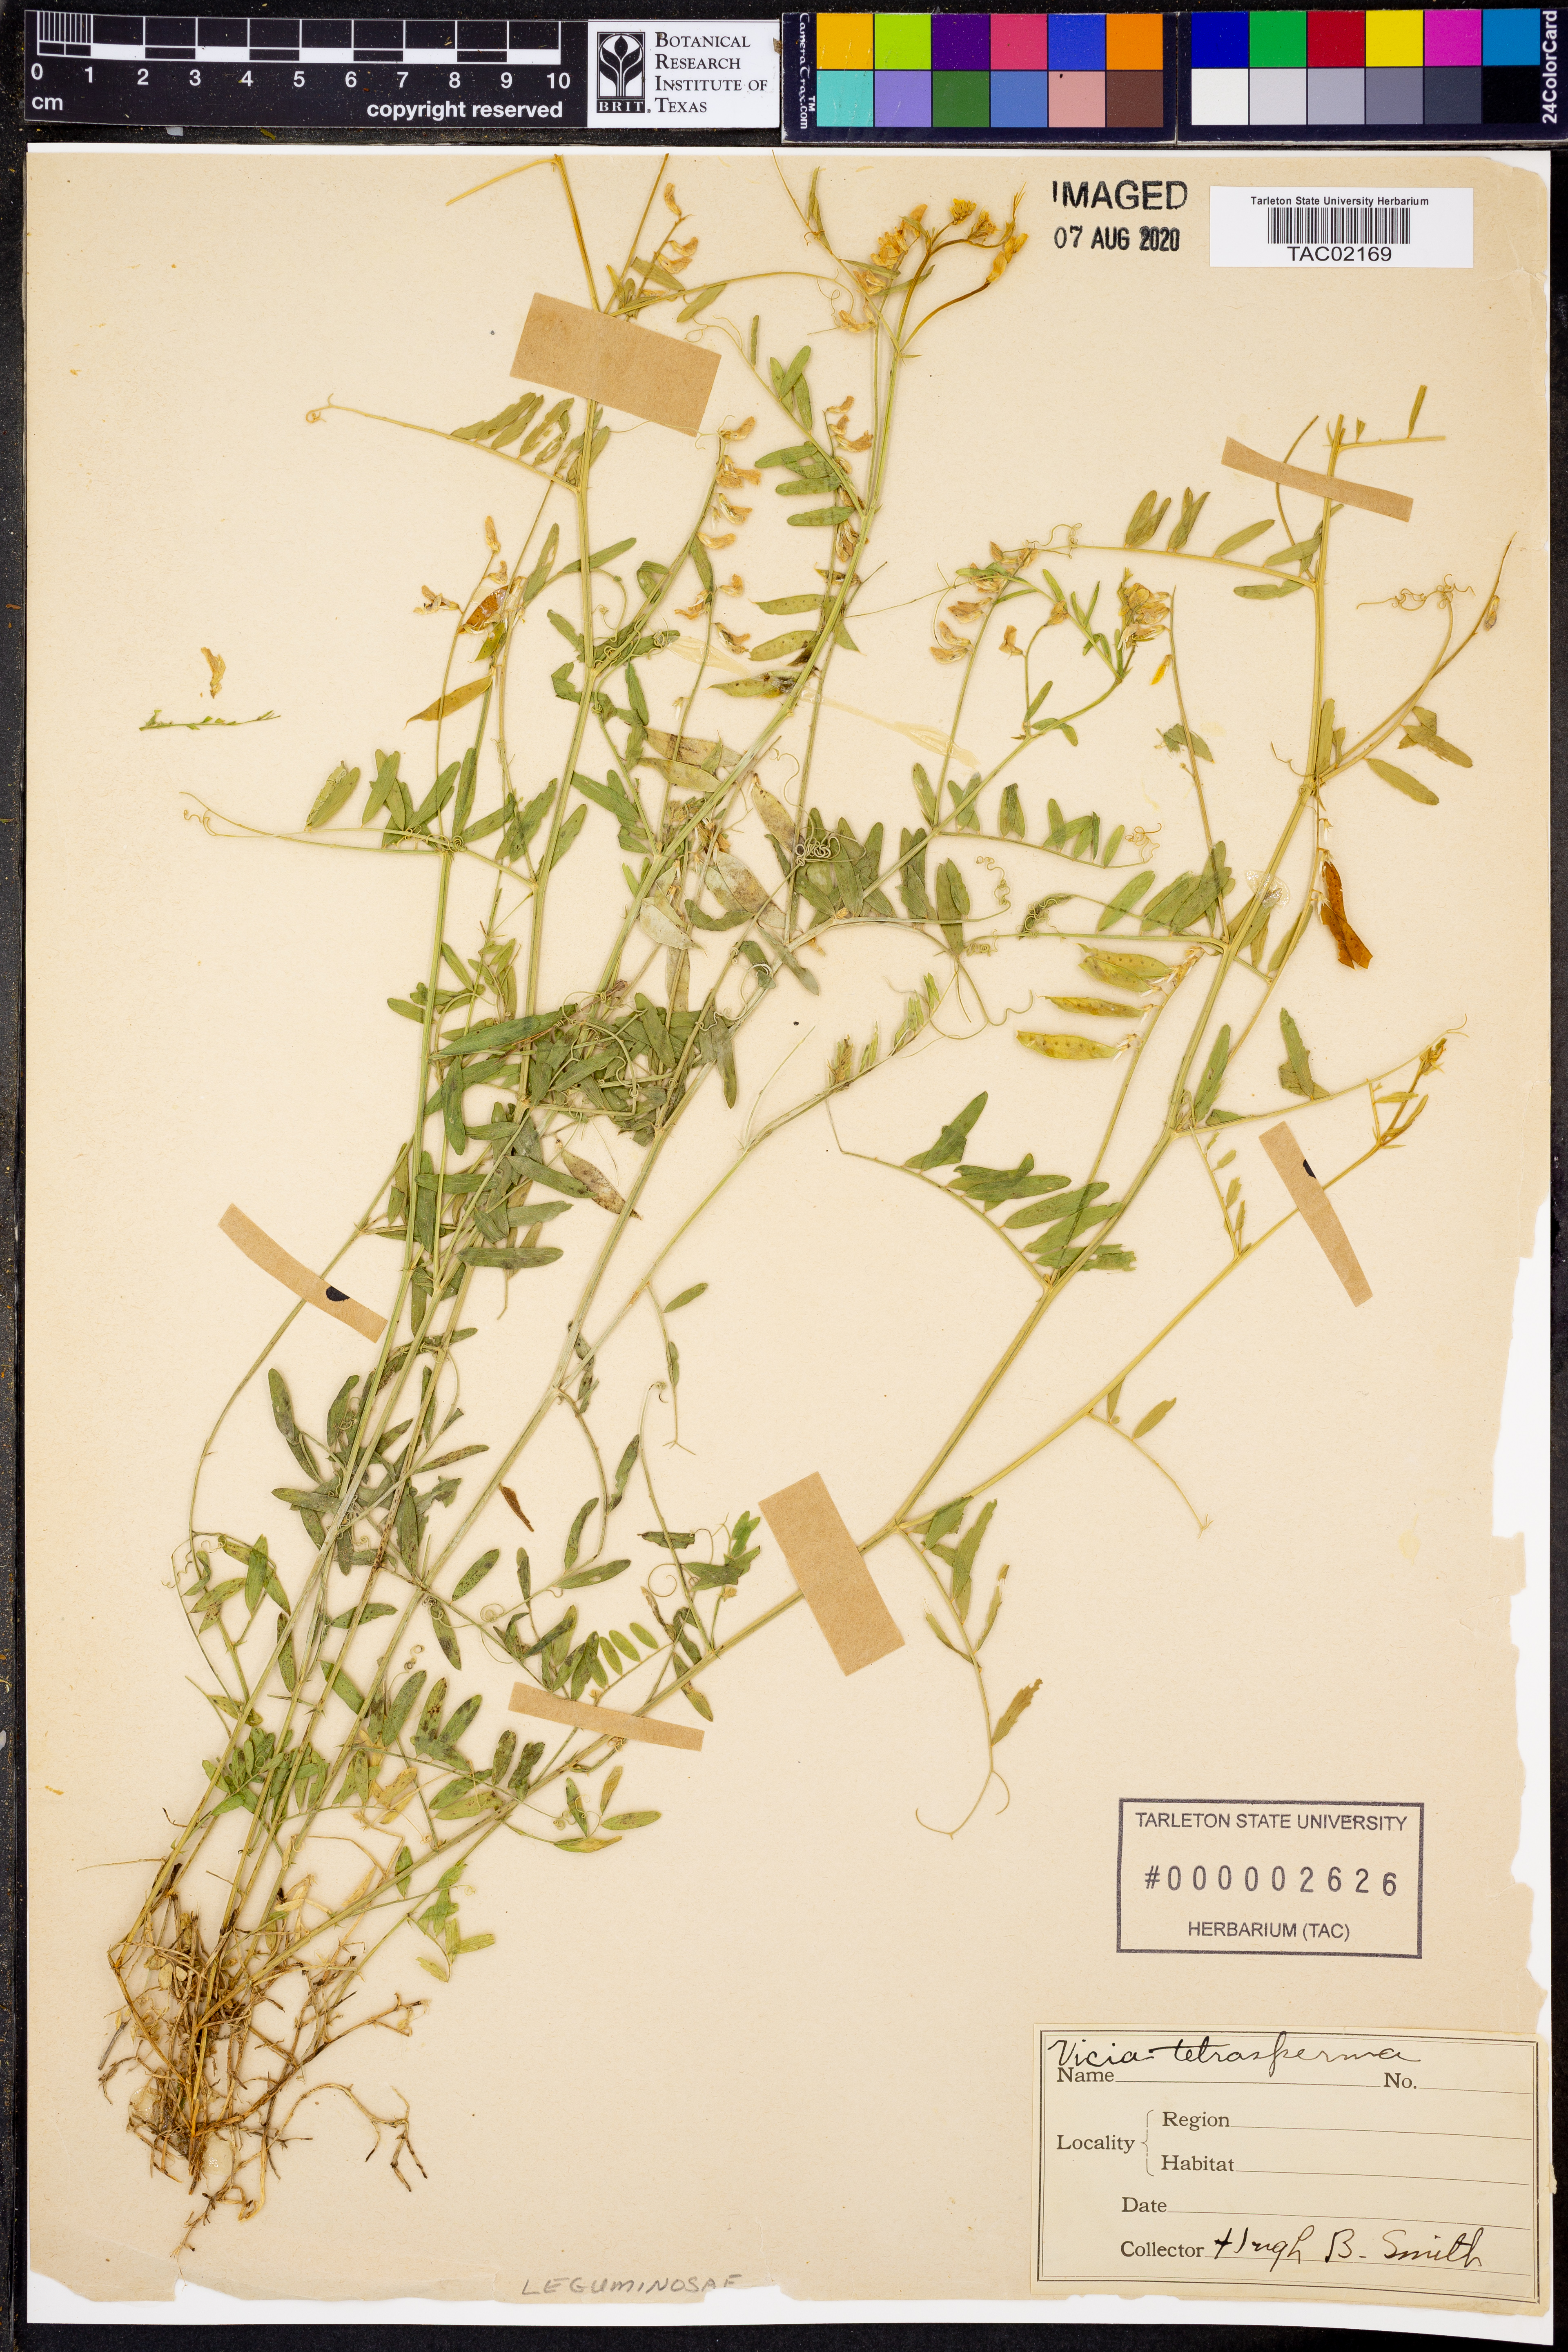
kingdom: Plantae
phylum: Tracheophyta
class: Magnoliopsida
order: Fabales
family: Fabaceae
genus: Vicia
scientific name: Vicia tetrasperma
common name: Smooth tare
